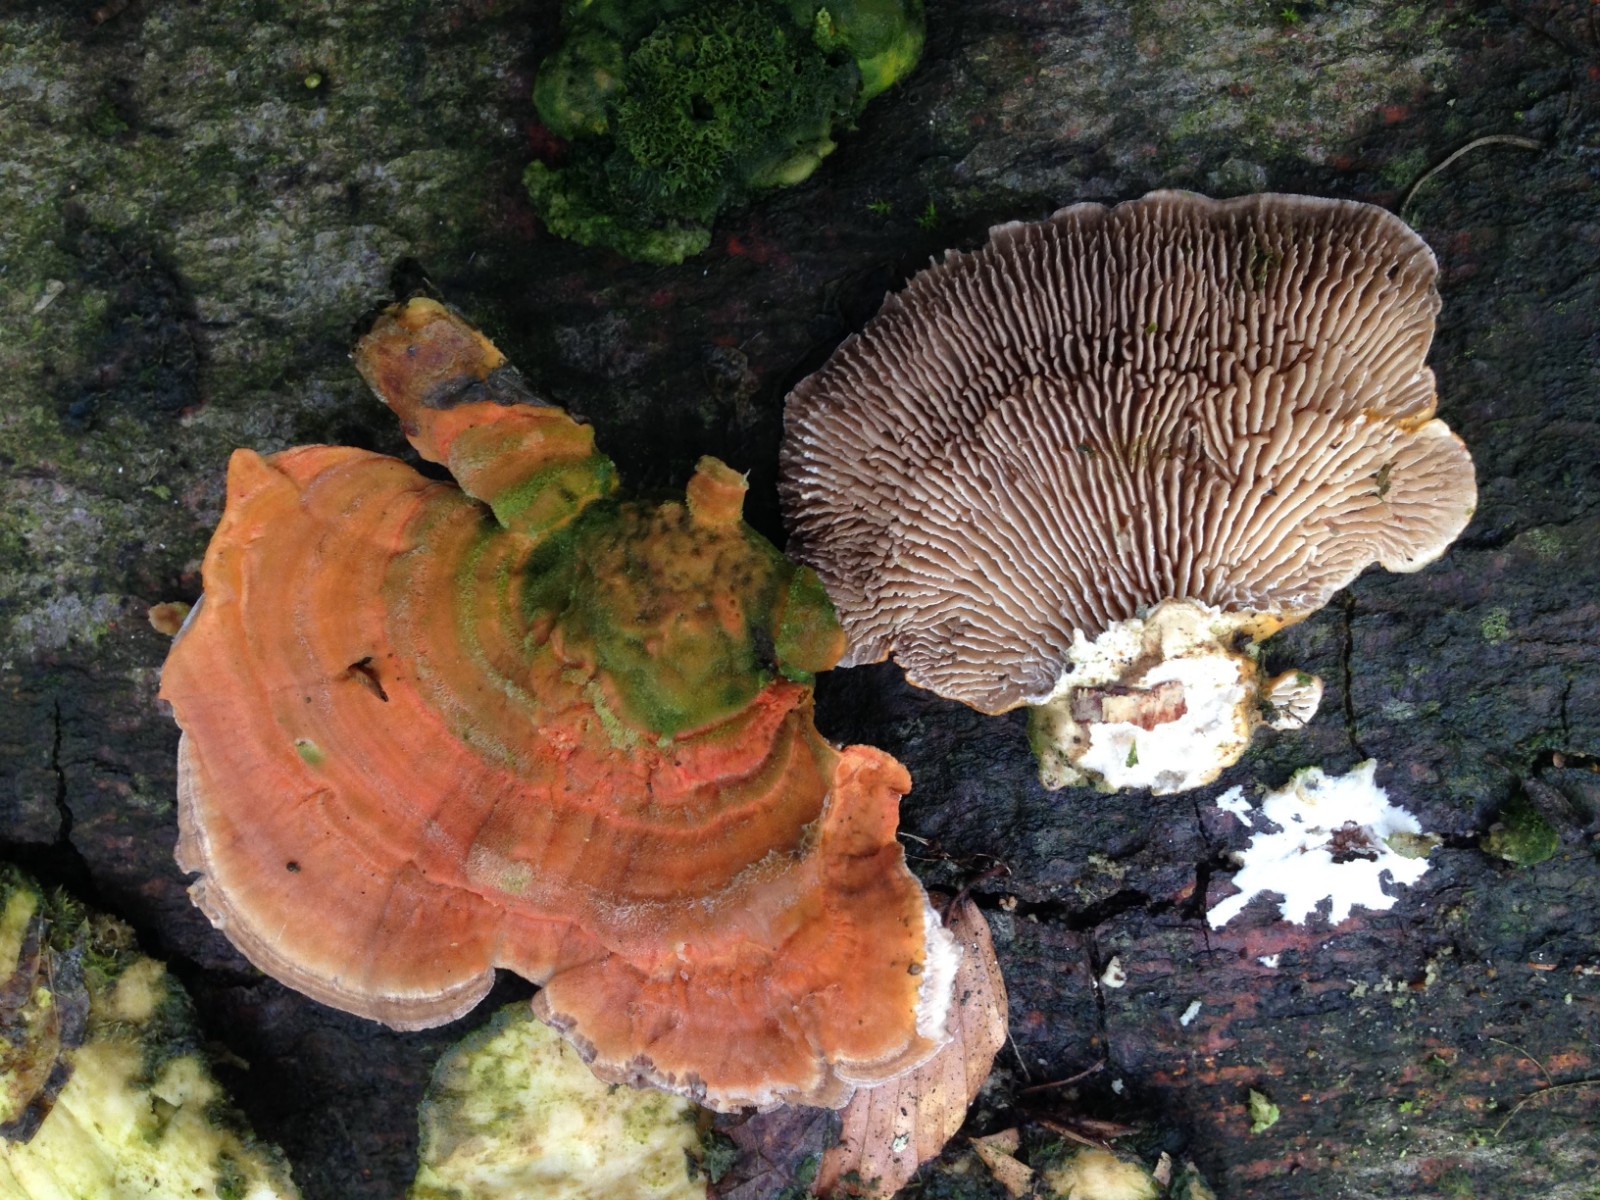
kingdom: Fungi
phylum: Basidiomycota
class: Agaricomycetes
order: Polyporales
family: Polyporaceae
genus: Lenzites
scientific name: Lenzites betulinus
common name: birke-læderporesvamp
